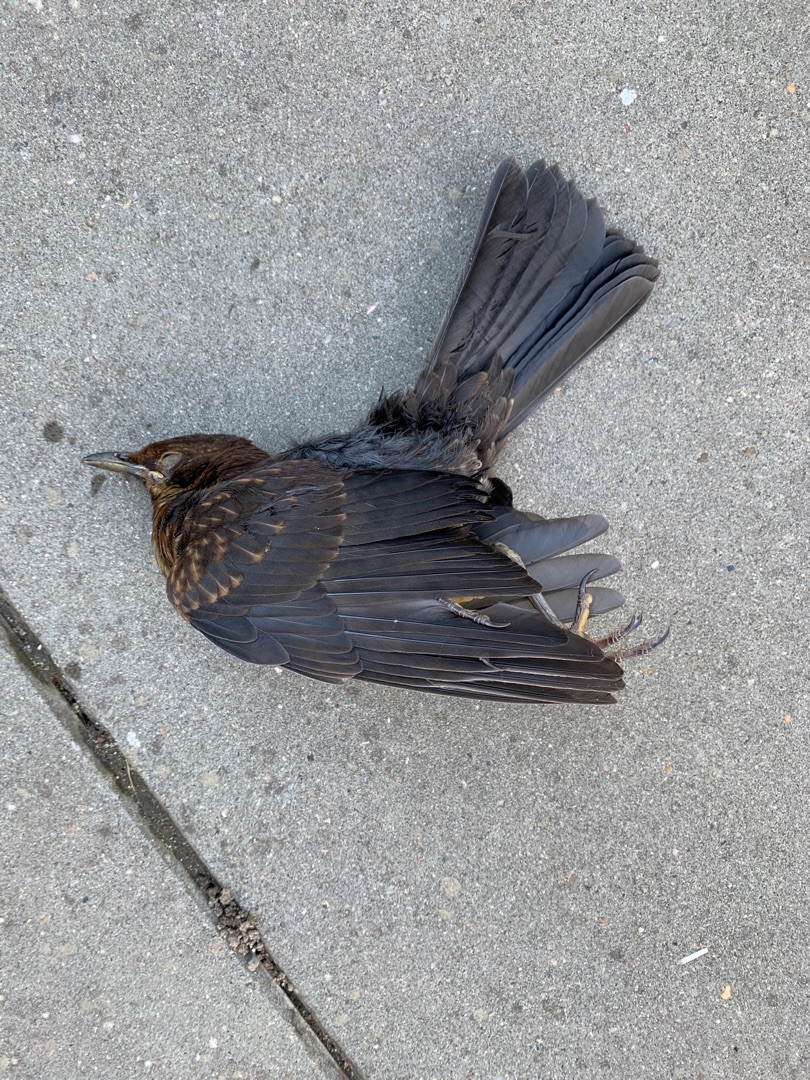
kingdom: Animalia
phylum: Chordata
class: Aves
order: Passeriformes
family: Turdidae
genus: Turdus
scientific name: Turdus merula
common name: Solsort
